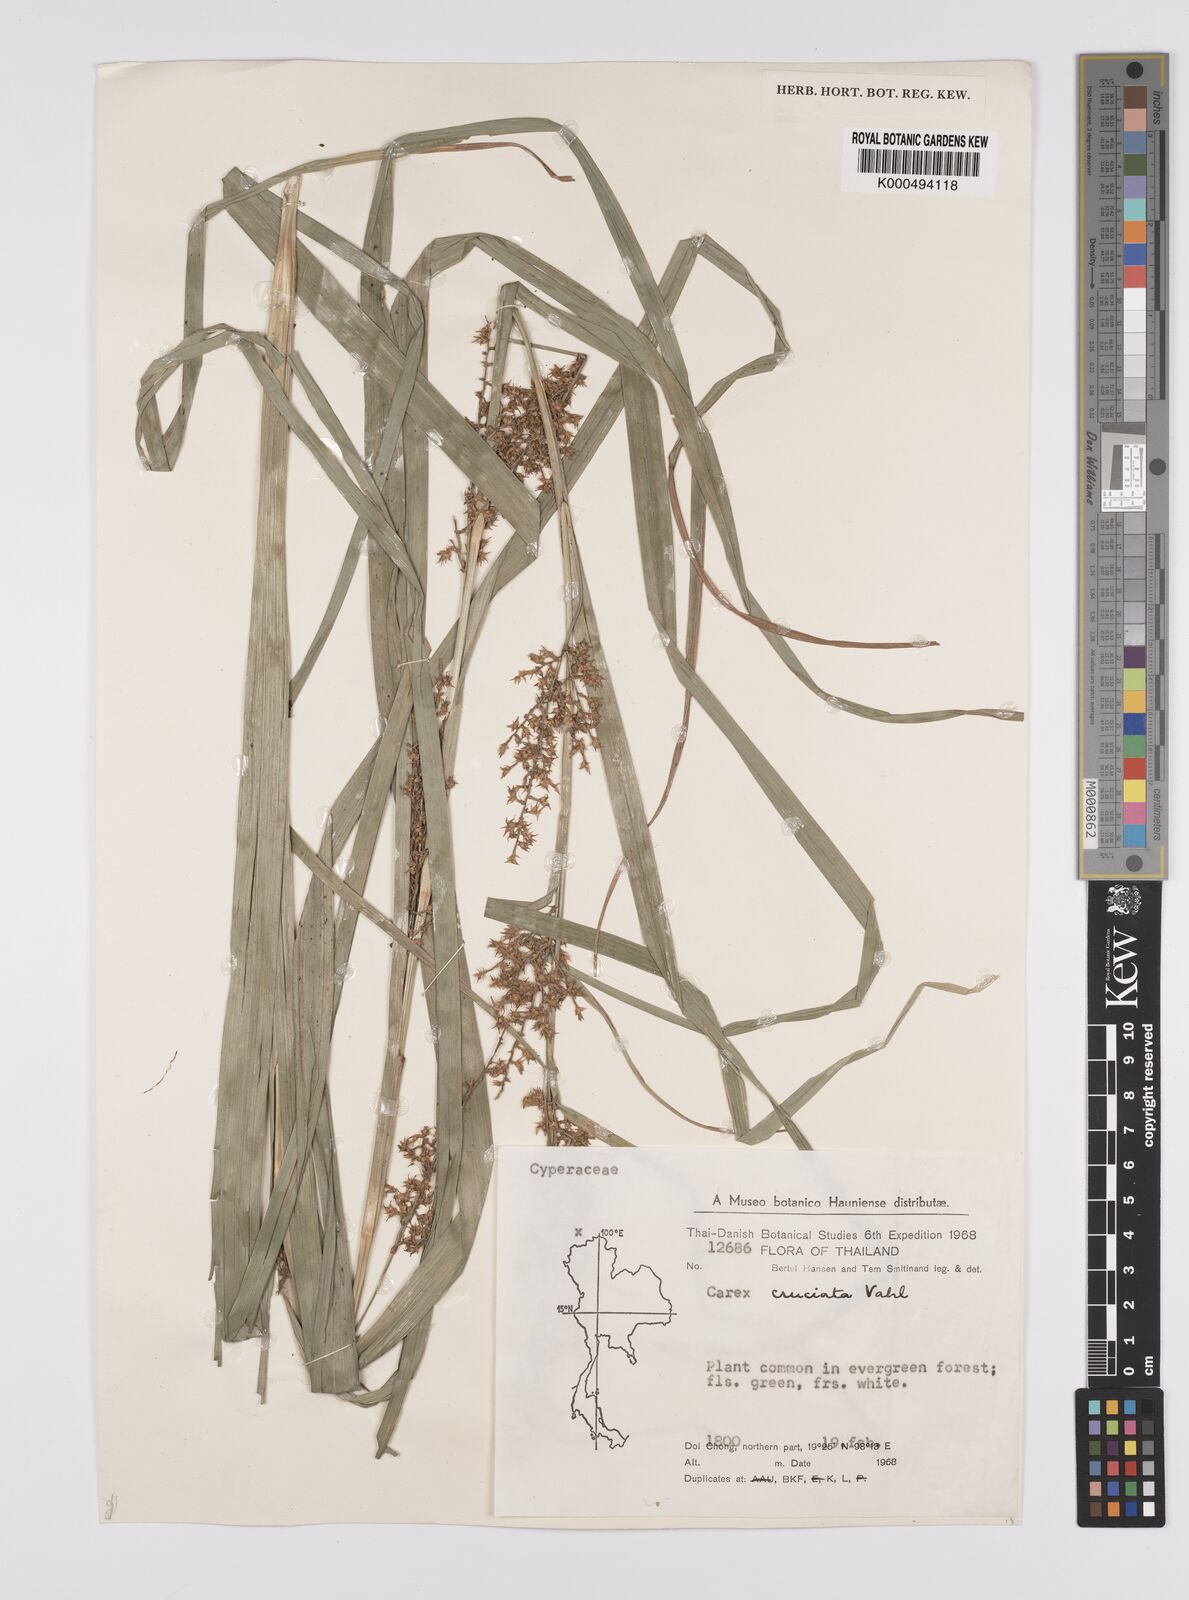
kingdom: Plantae
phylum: Tracheophyta
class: Liliopsida
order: Poales
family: Cyperaceae
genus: Carex
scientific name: Carex cruciata
